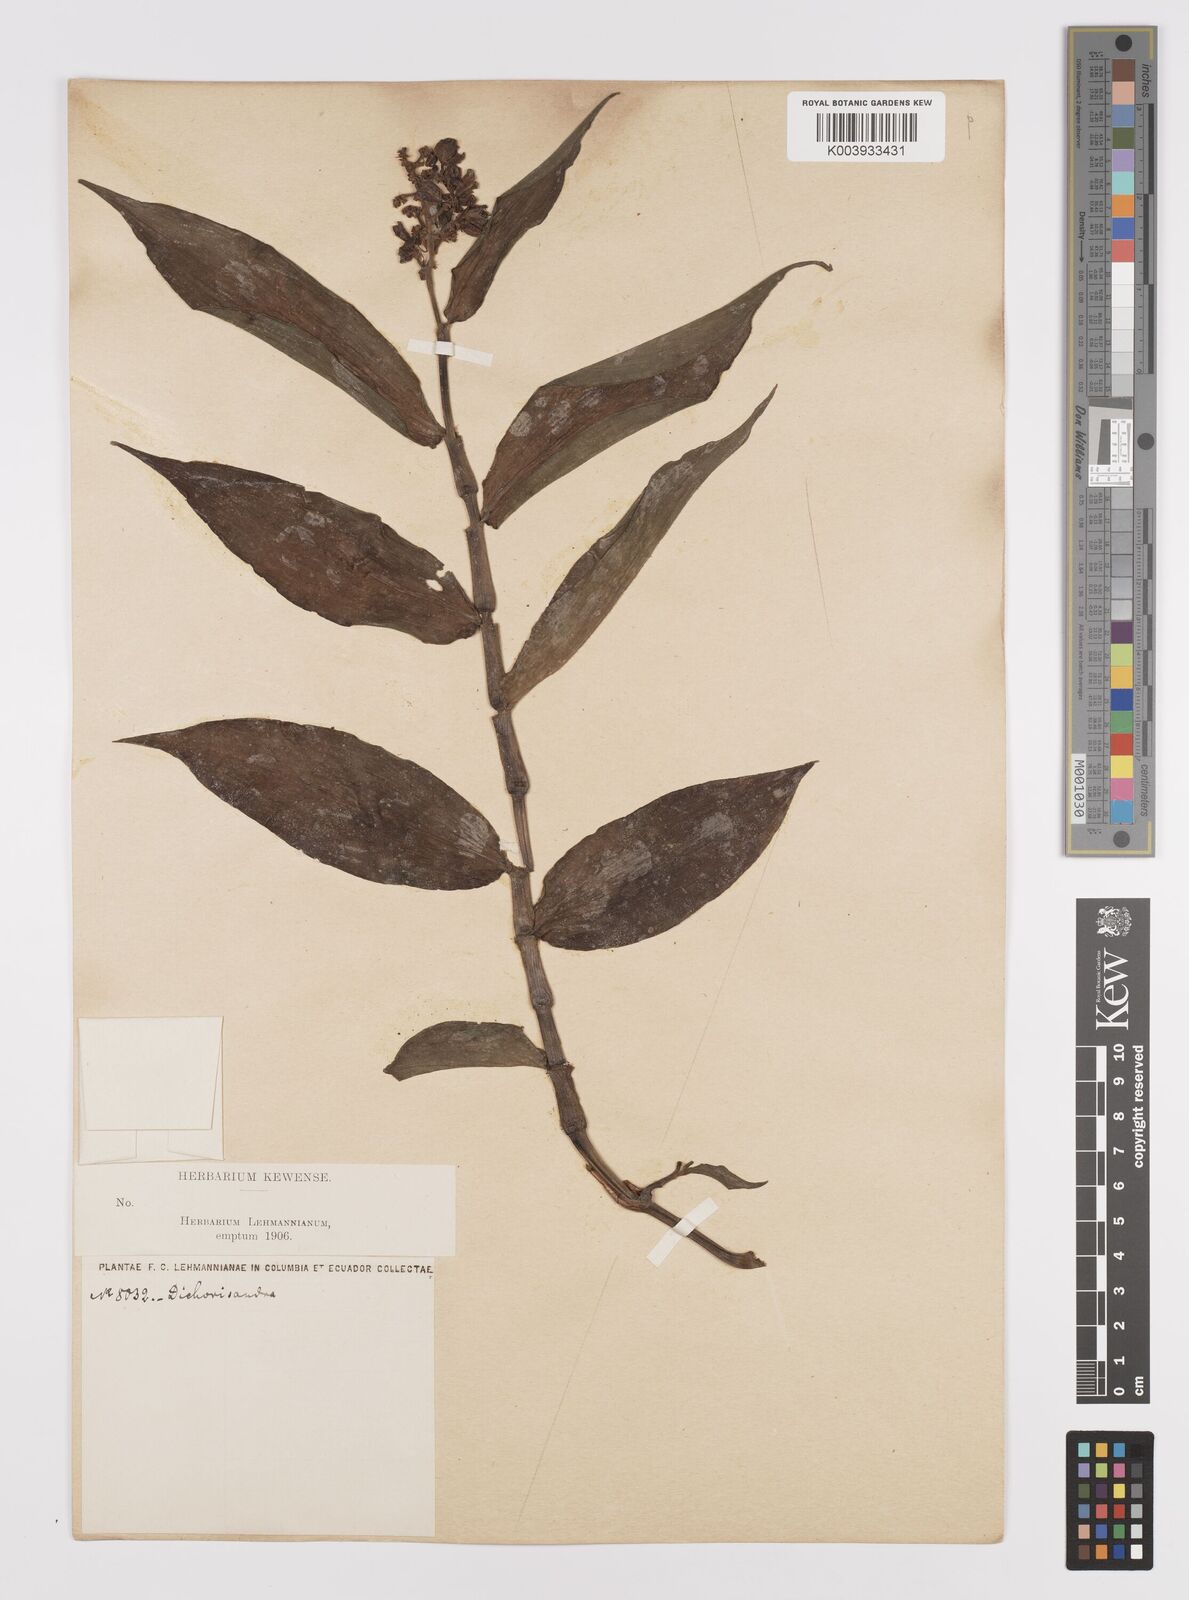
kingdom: Plantae
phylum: Tracheophyta
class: Liliopsida
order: Commelinales
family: Commelinaceae
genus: Dichorisandra
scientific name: Dichorisandra hexandra
